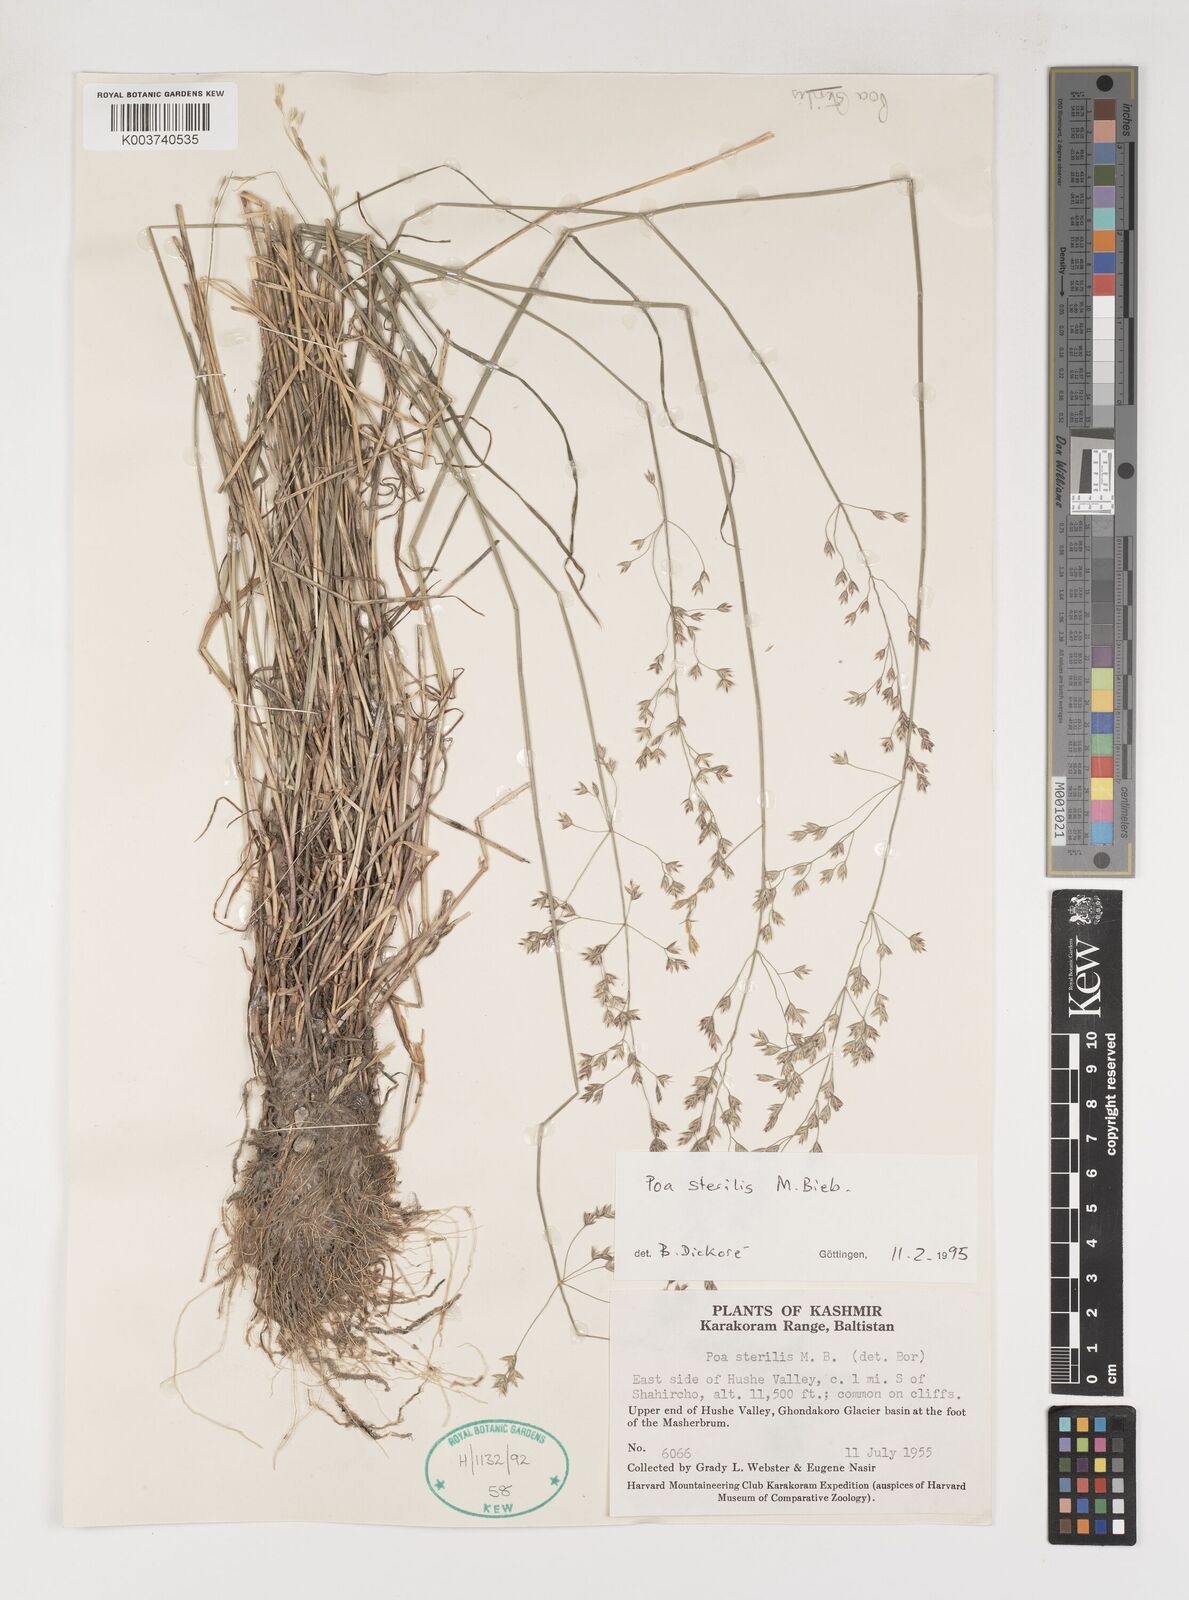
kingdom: Plantae
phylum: Tracheophyta
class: Liliopsida
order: Poales
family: Poaceae
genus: Poa
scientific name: Poa sterilis
